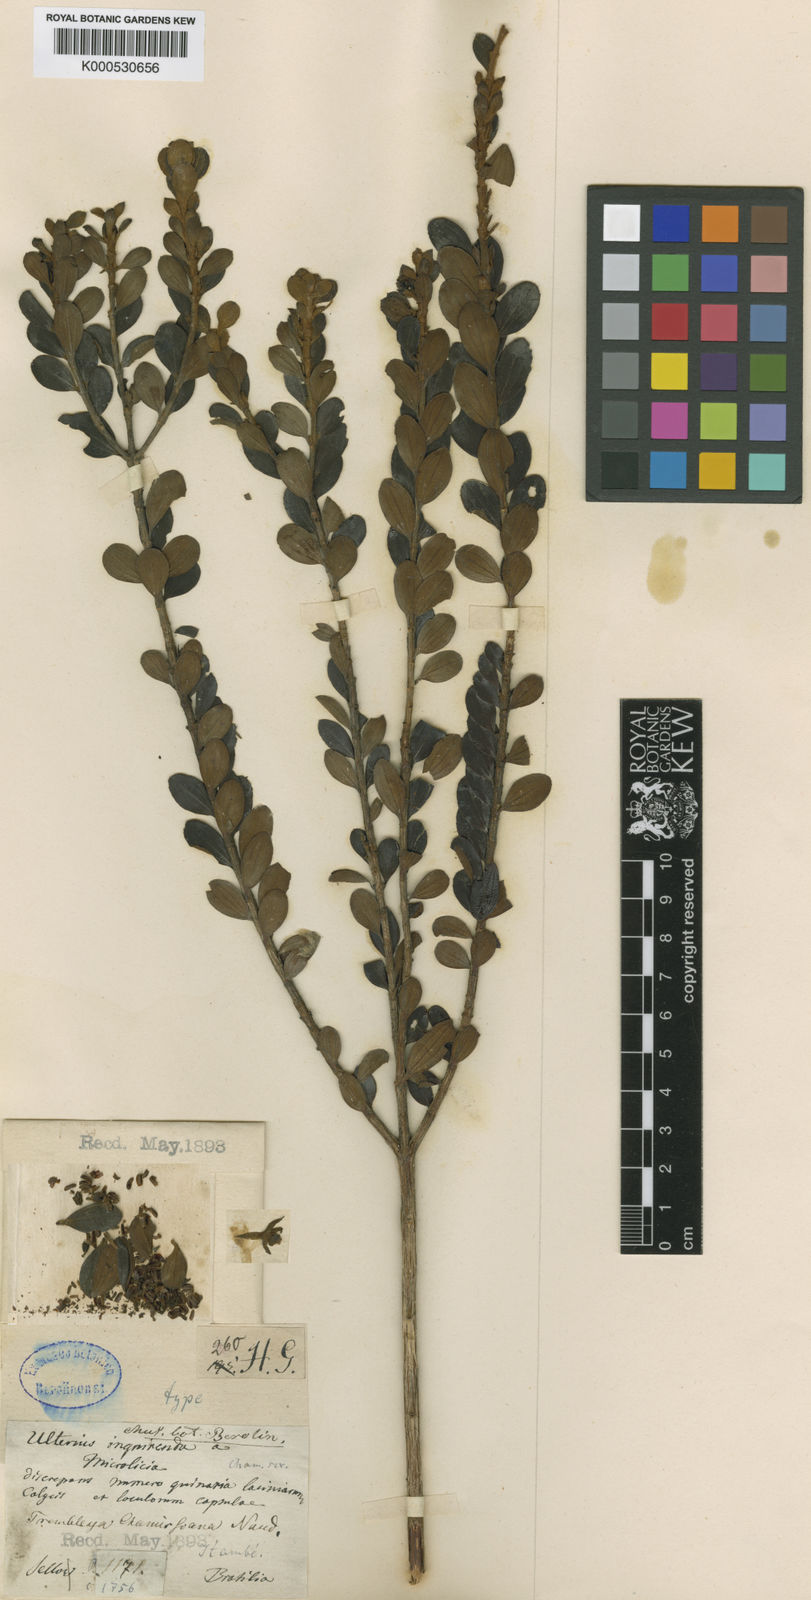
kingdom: Plantae
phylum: Tracheophyta
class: Magnoliopsida
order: Myrtales
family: Melastomataceae
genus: Microlicia
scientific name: Microlicia chamissoana
